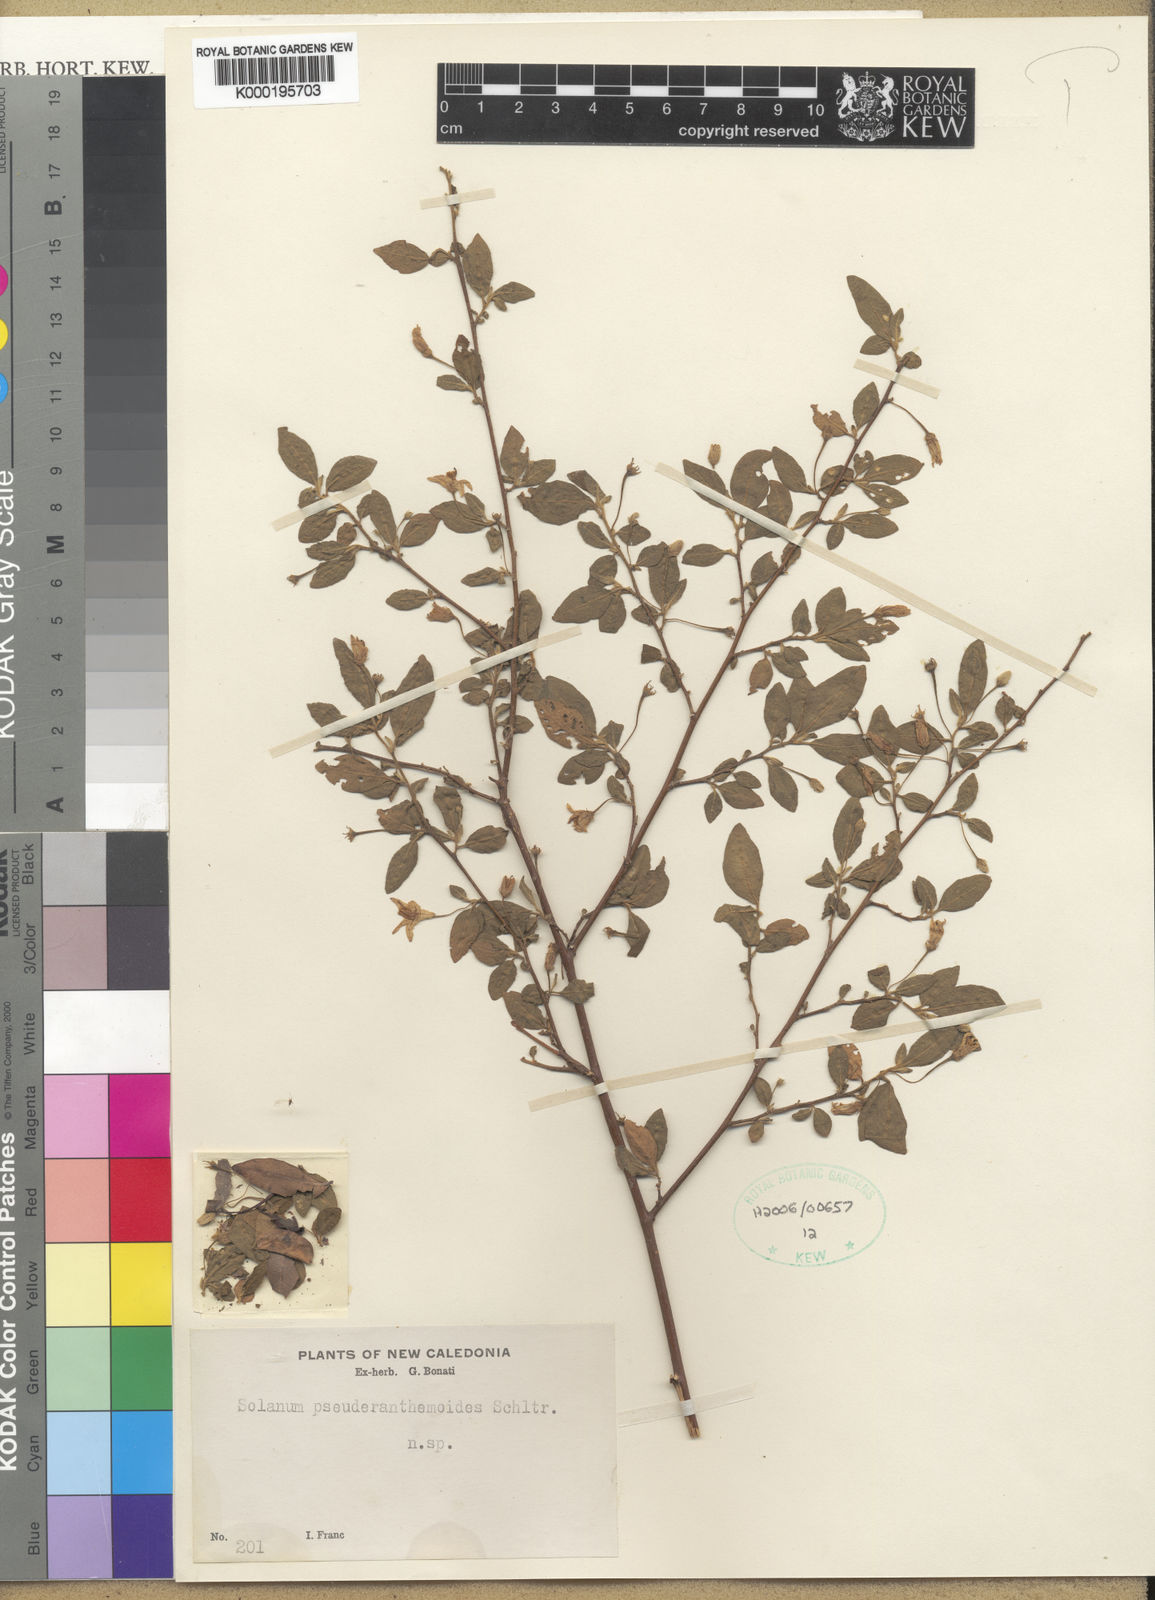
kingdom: Plantae
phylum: Tracheophyta
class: Magnoliopsida
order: Solanales
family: Solanaceae
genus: Solanum
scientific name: Solanum pseuderanthemoides
